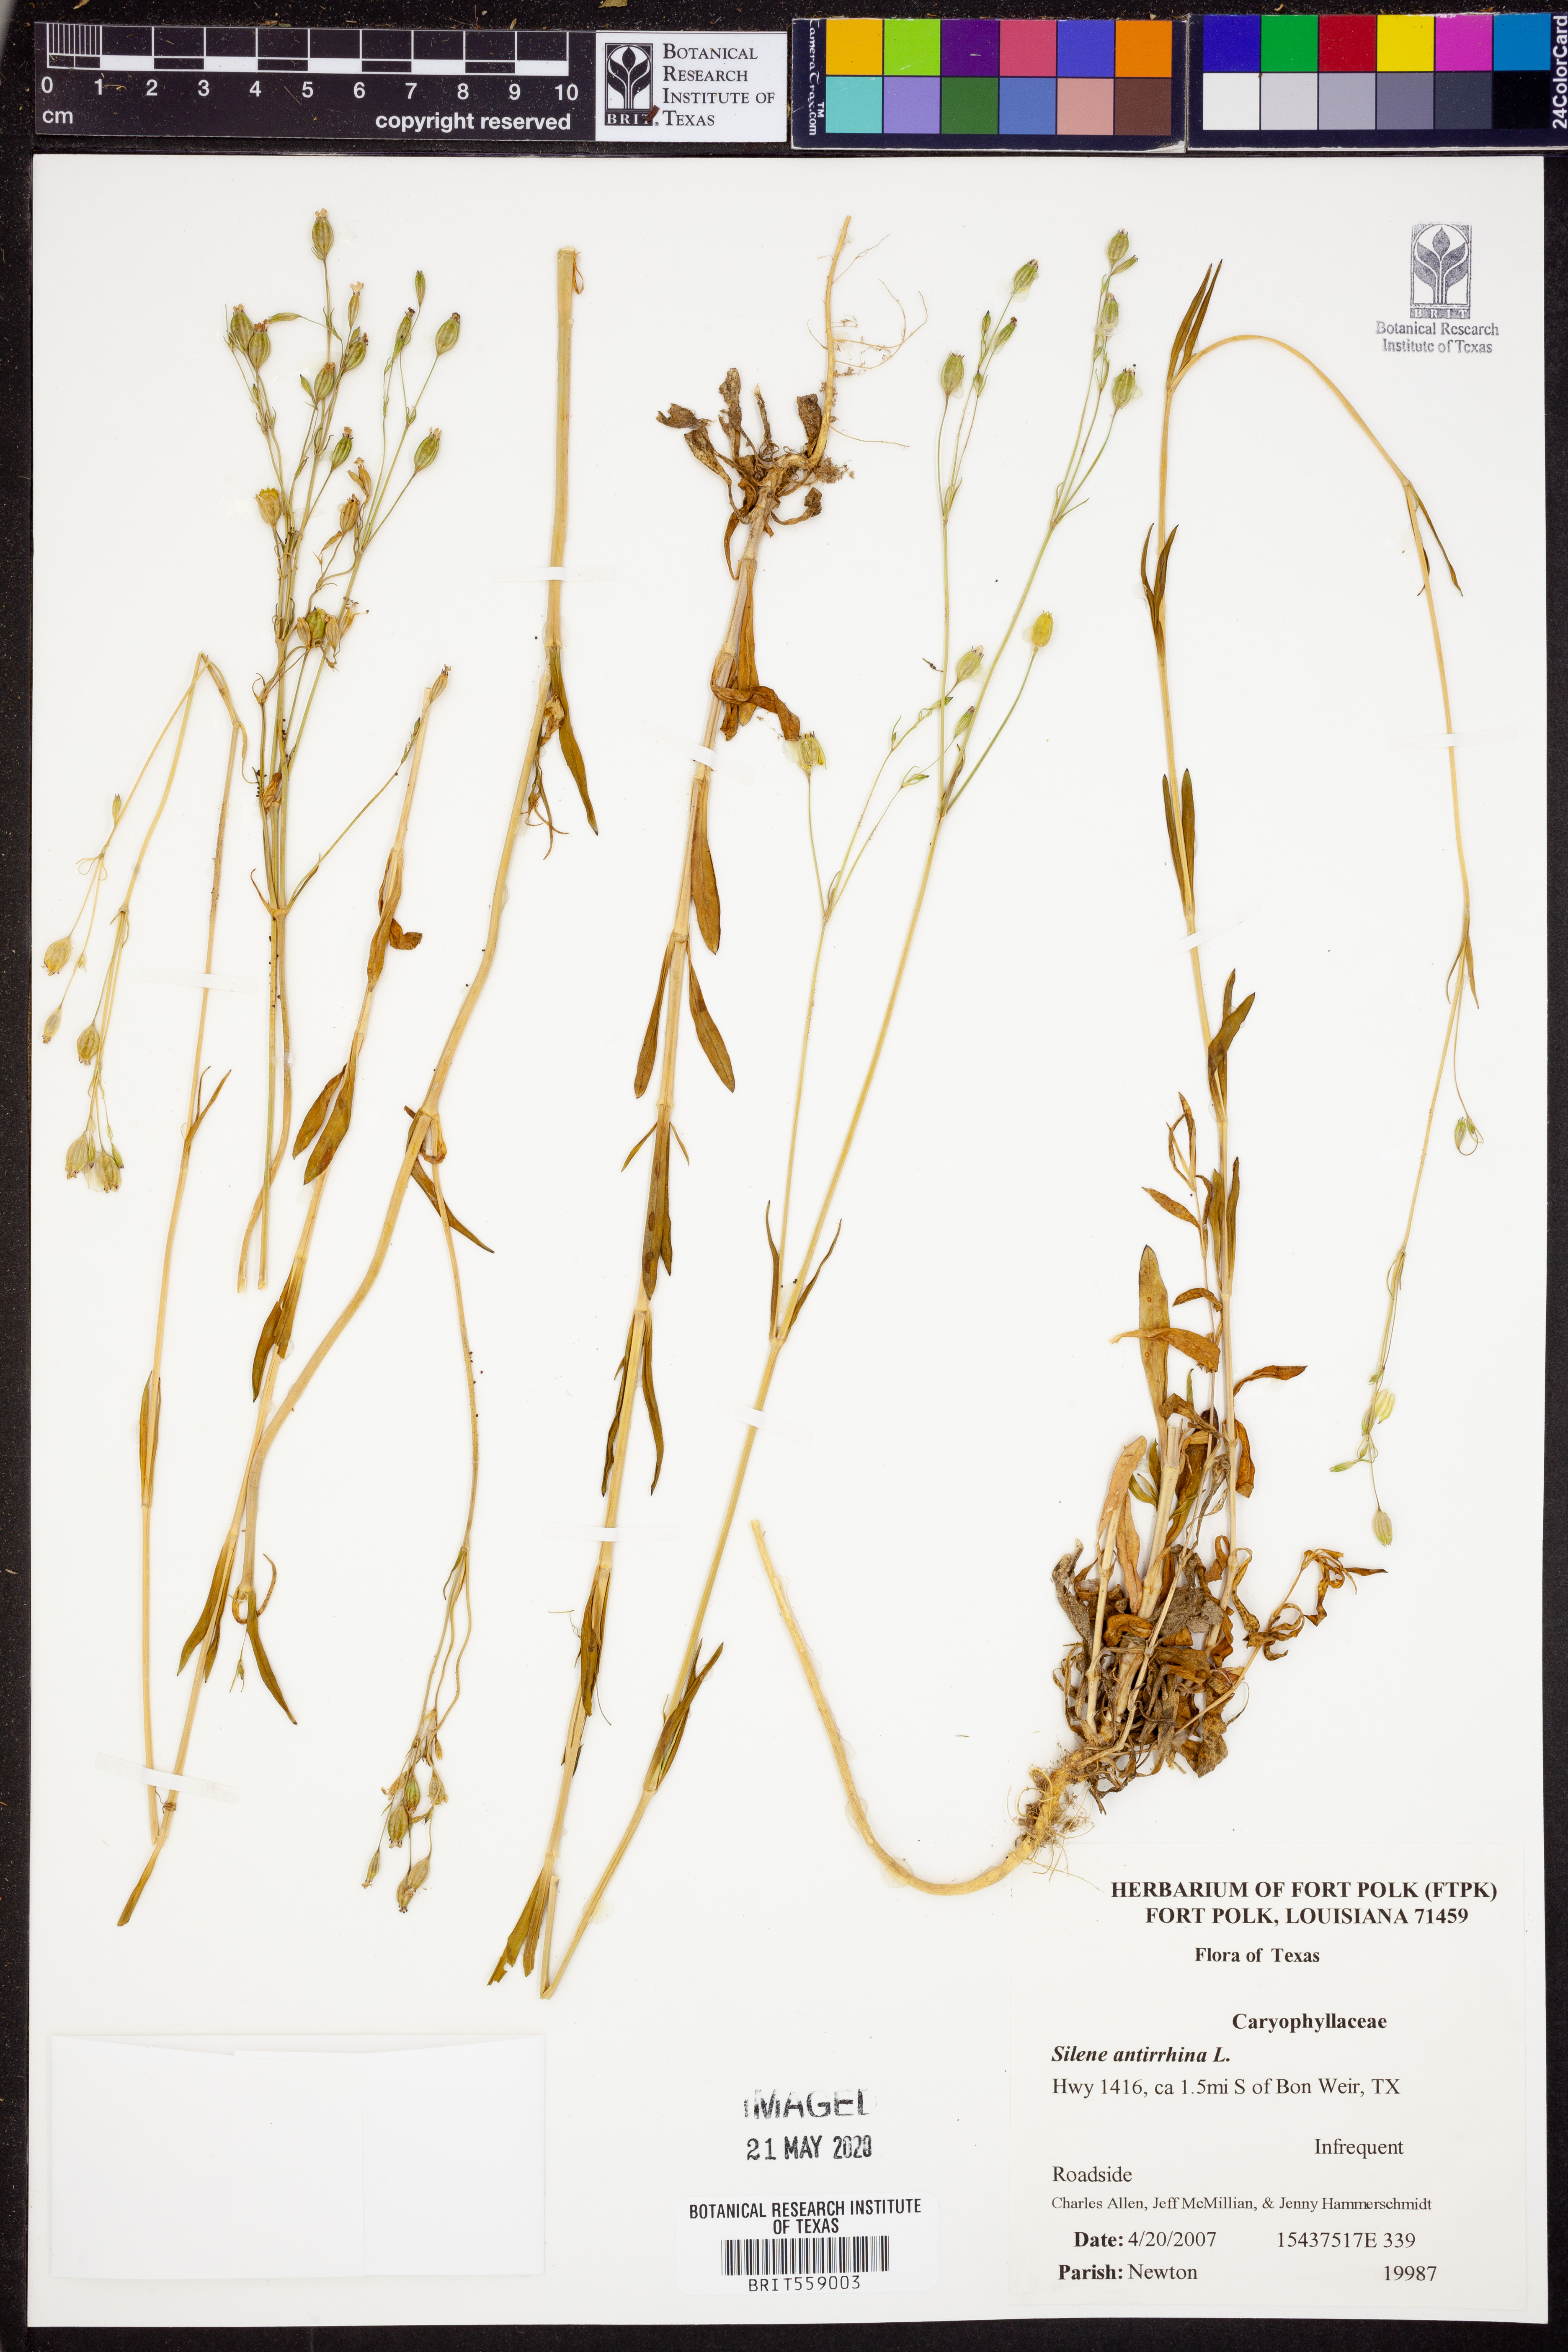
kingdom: Plantae
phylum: Tracheophyta
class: Magnoliopsida
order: Caryophyllales
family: Caryophyllaceae
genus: Silene
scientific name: Silene antirrhina
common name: Sleepy catchfly
